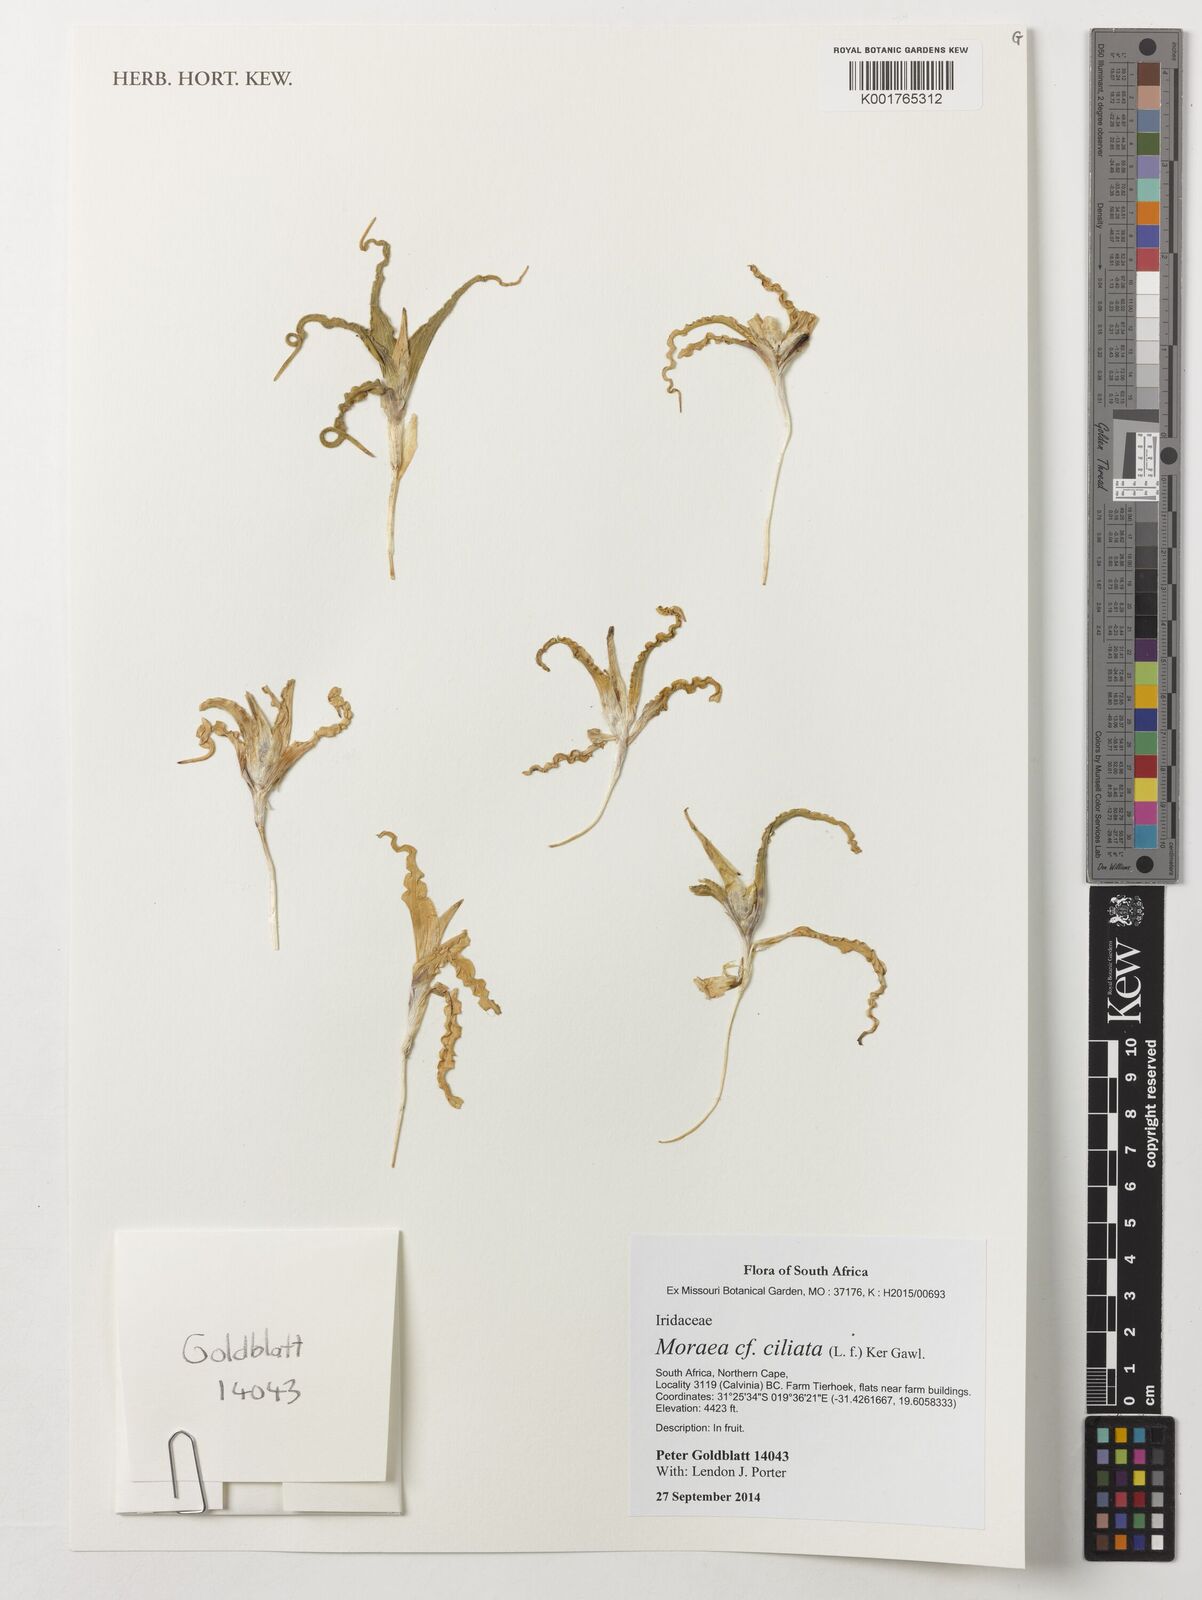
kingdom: Plantae
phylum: Tracheophyta
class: Liliopsida
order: Asparagales
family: Iridaceae
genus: Moraea
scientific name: Moraea ciliata
